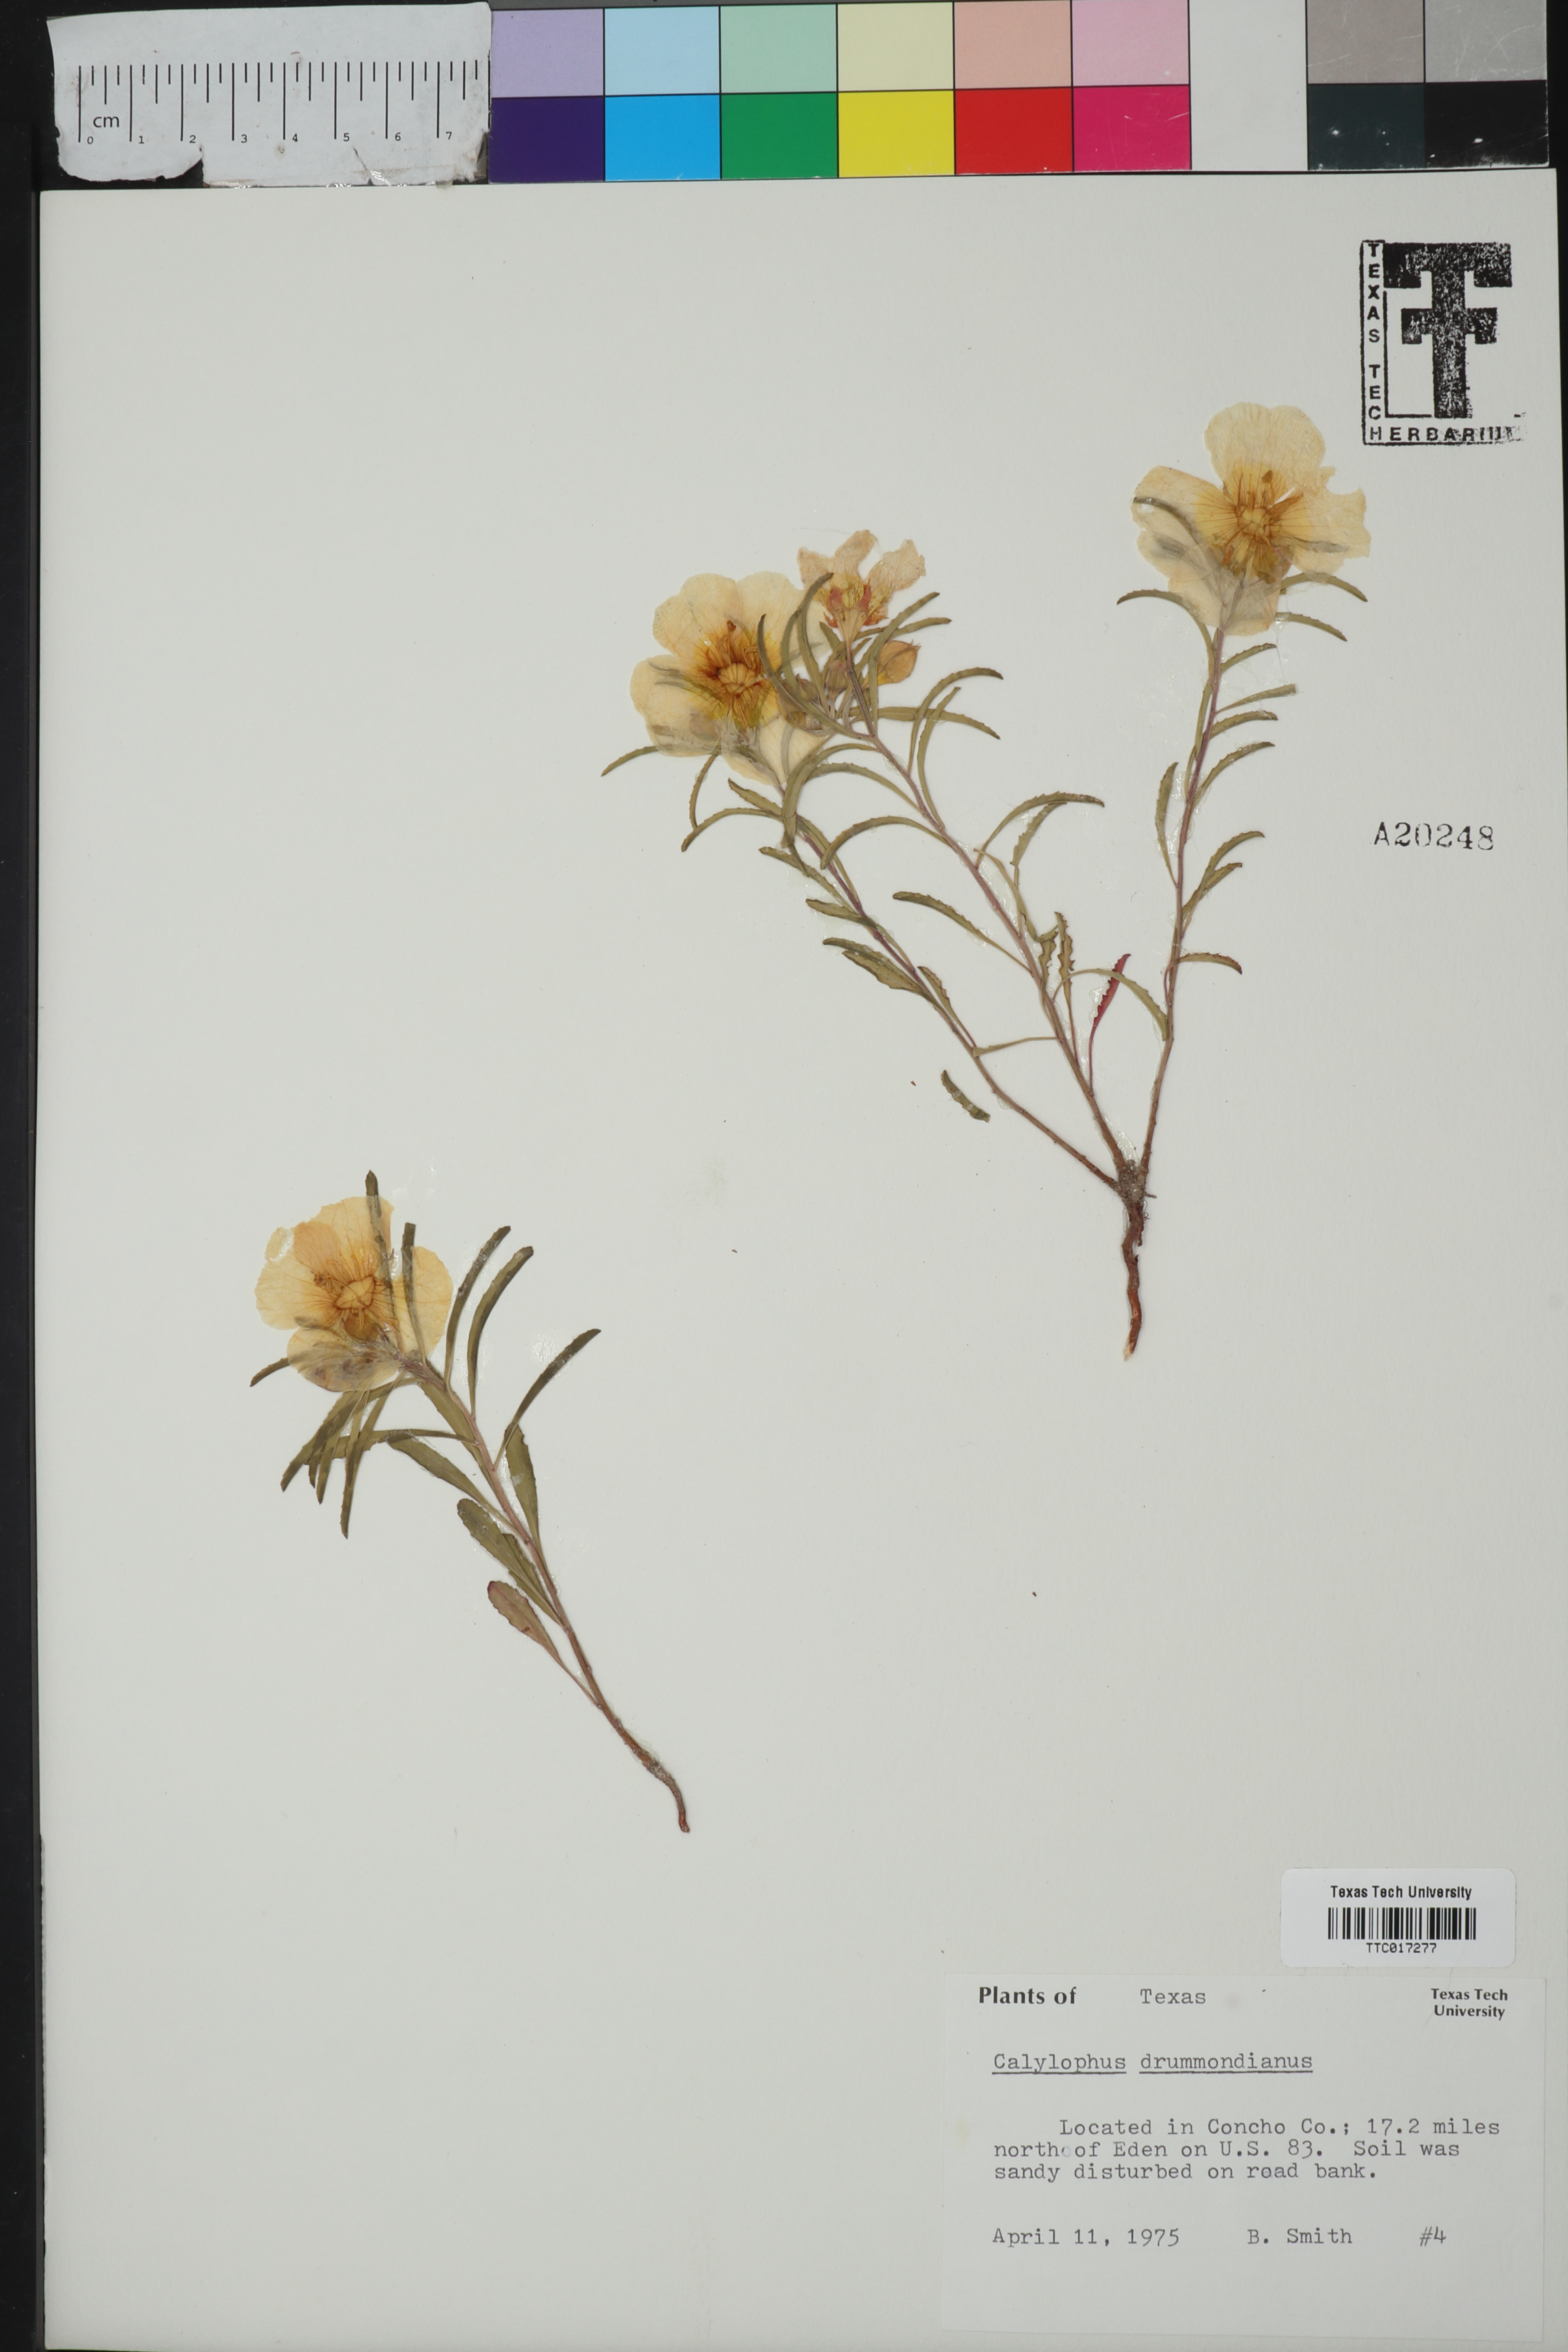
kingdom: Plantae
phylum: Tracheophyta
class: Magnoliopsida
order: Myrtales
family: Onagraceae
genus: Oenothera
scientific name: Oenothera serrulata
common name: Half-shrub calylophus
